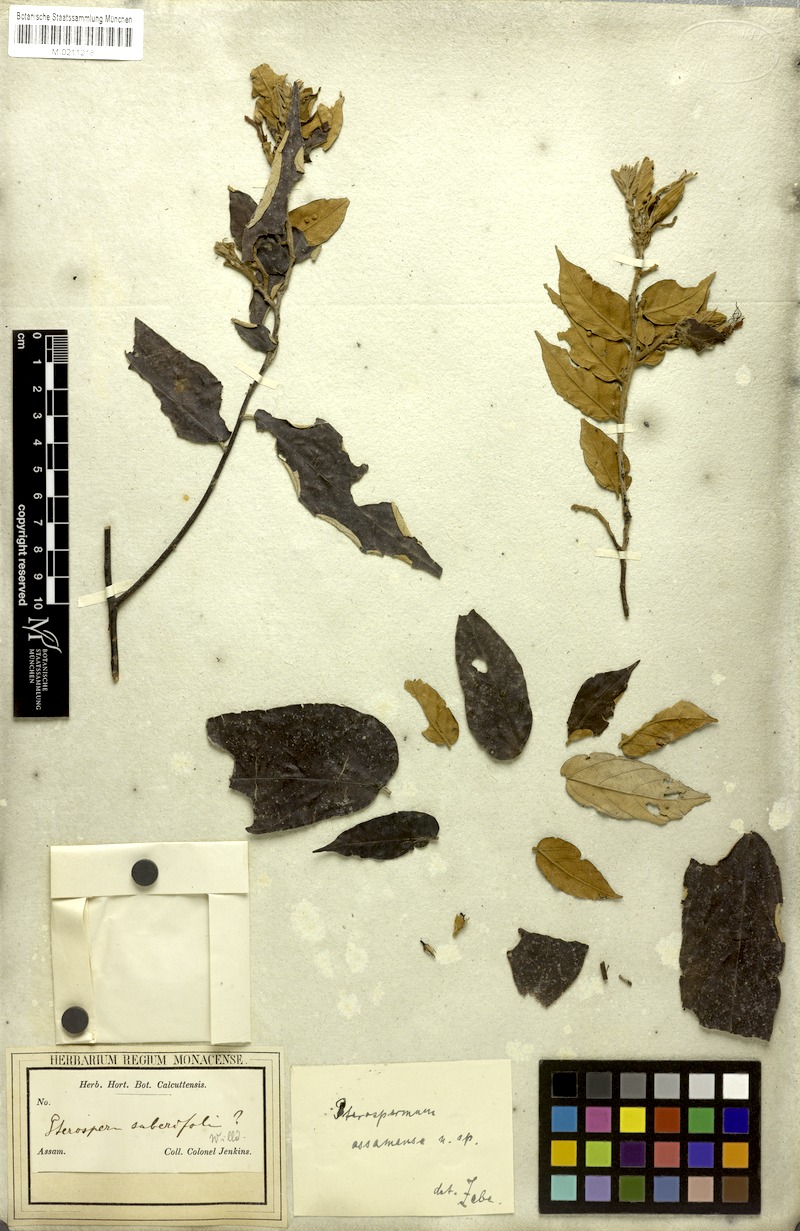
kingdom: Plantae
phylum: Tracheophyta
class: Magnoliopsida
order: Malvales
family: Malvaceae
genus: Pterospermum
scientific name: Pterospermum suberifolium
